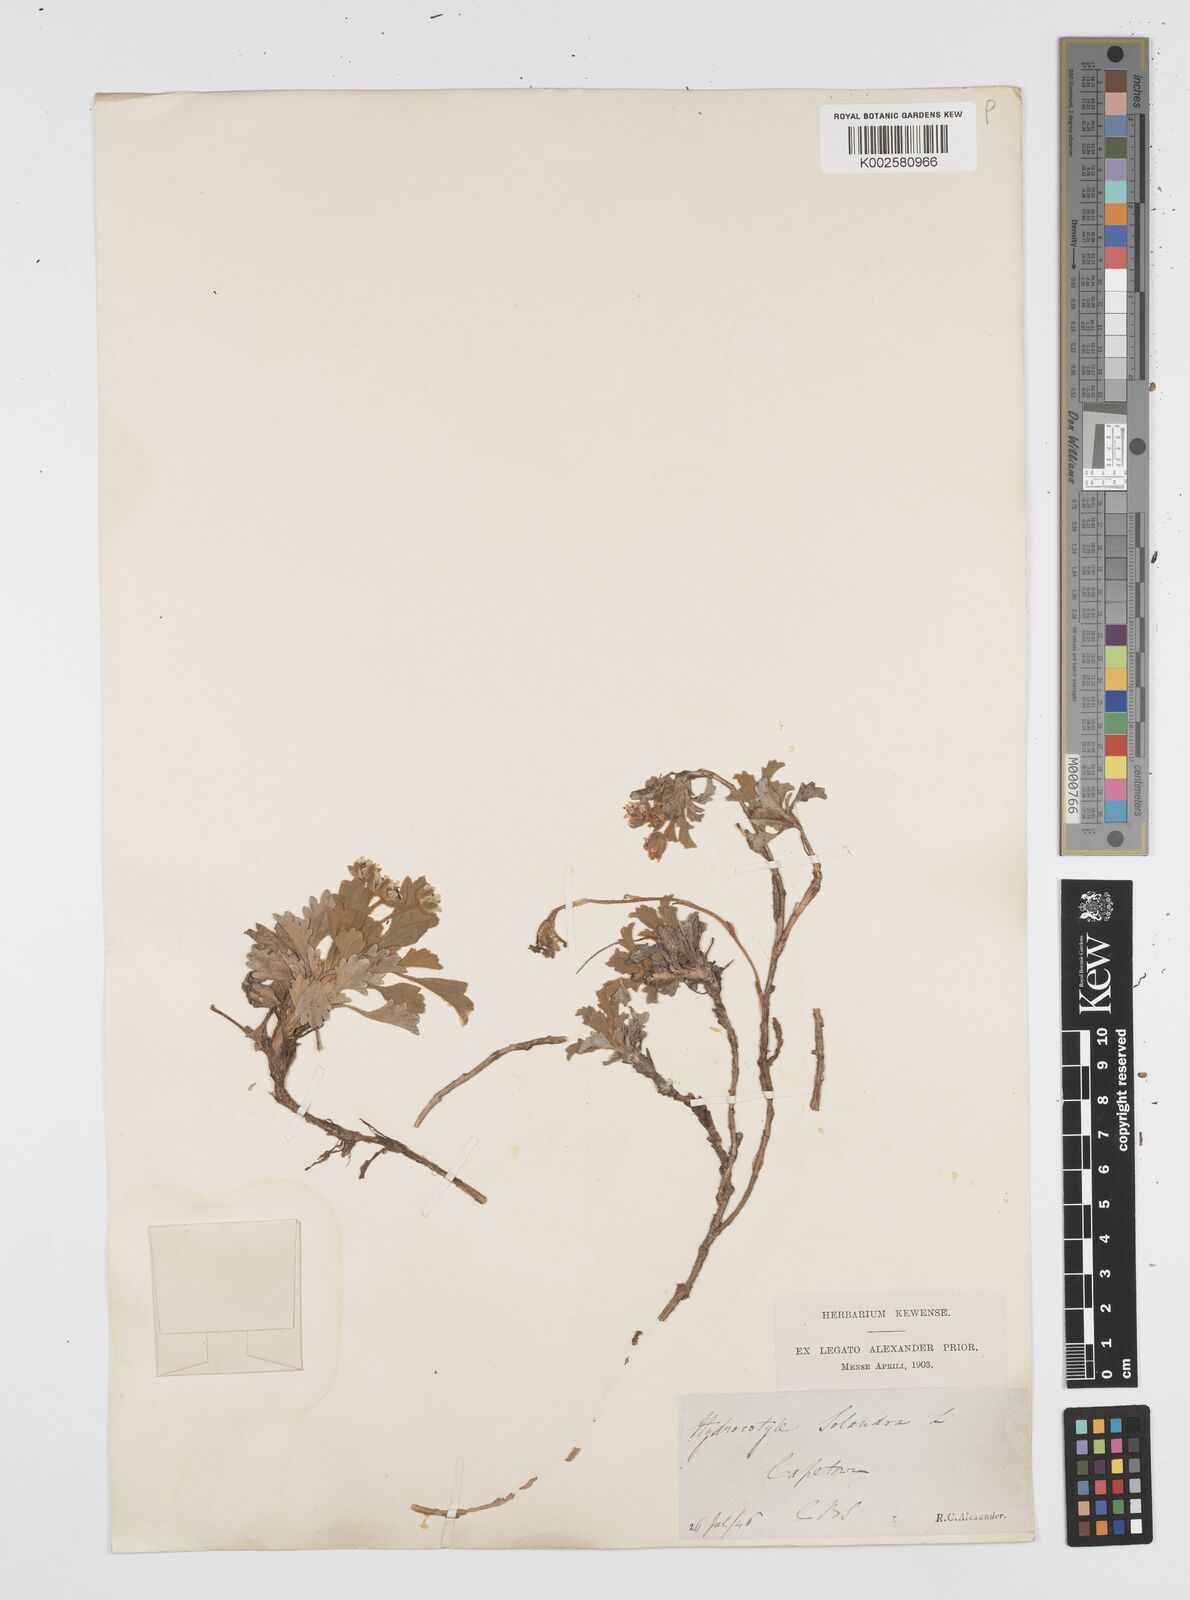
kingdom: Plantae
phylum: Tracheophyta
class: Magnoliopsida
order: Apiales
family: Apiaceae
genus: Centella
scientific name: Centella capensis
